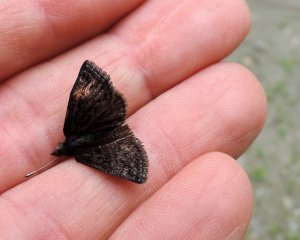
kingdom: Animalia
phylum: Arthropoda
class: Insecta
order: Lepidoptera
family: Hesperiidae
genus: Erynnis
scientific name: Erynnis icelus
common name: Dreamy Duskywing
